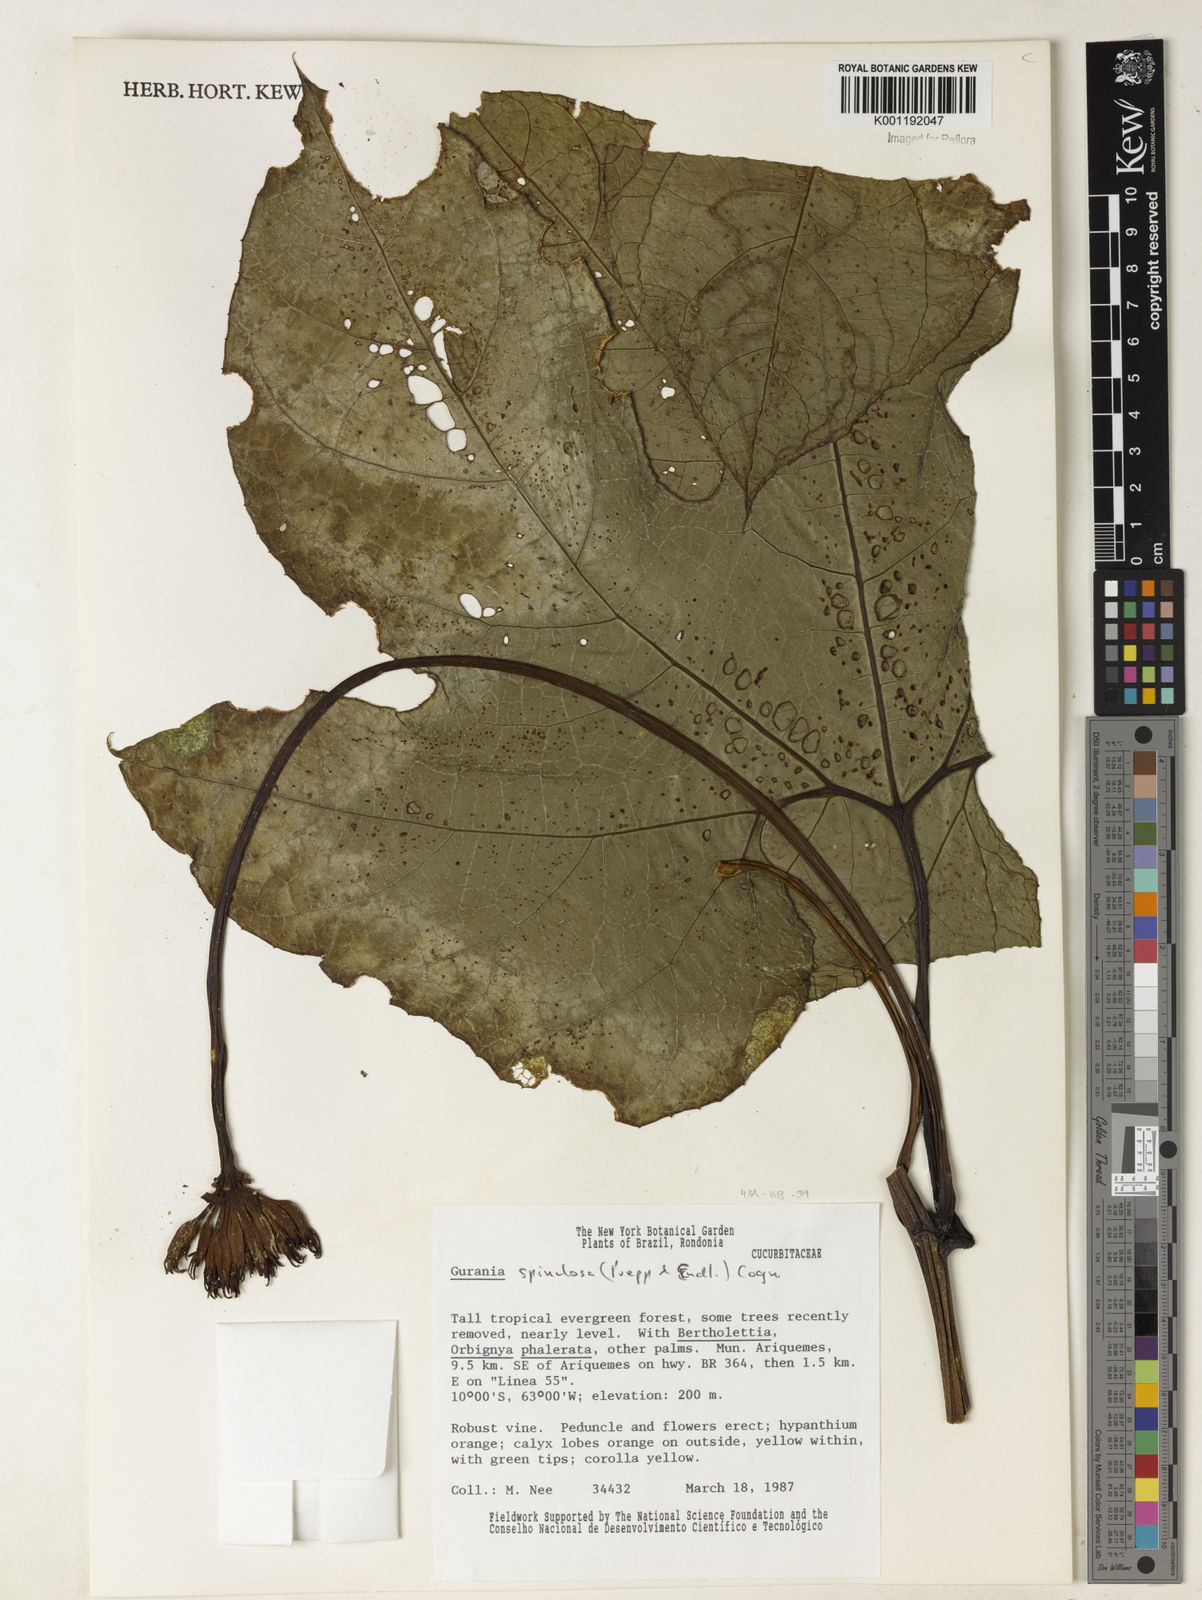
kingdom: Plantae
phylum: Tracheophyta
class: Magnoliopsida
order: Cucurbitales
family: Cucurbitaceae
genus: Gurania
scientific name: Gurania lobata
